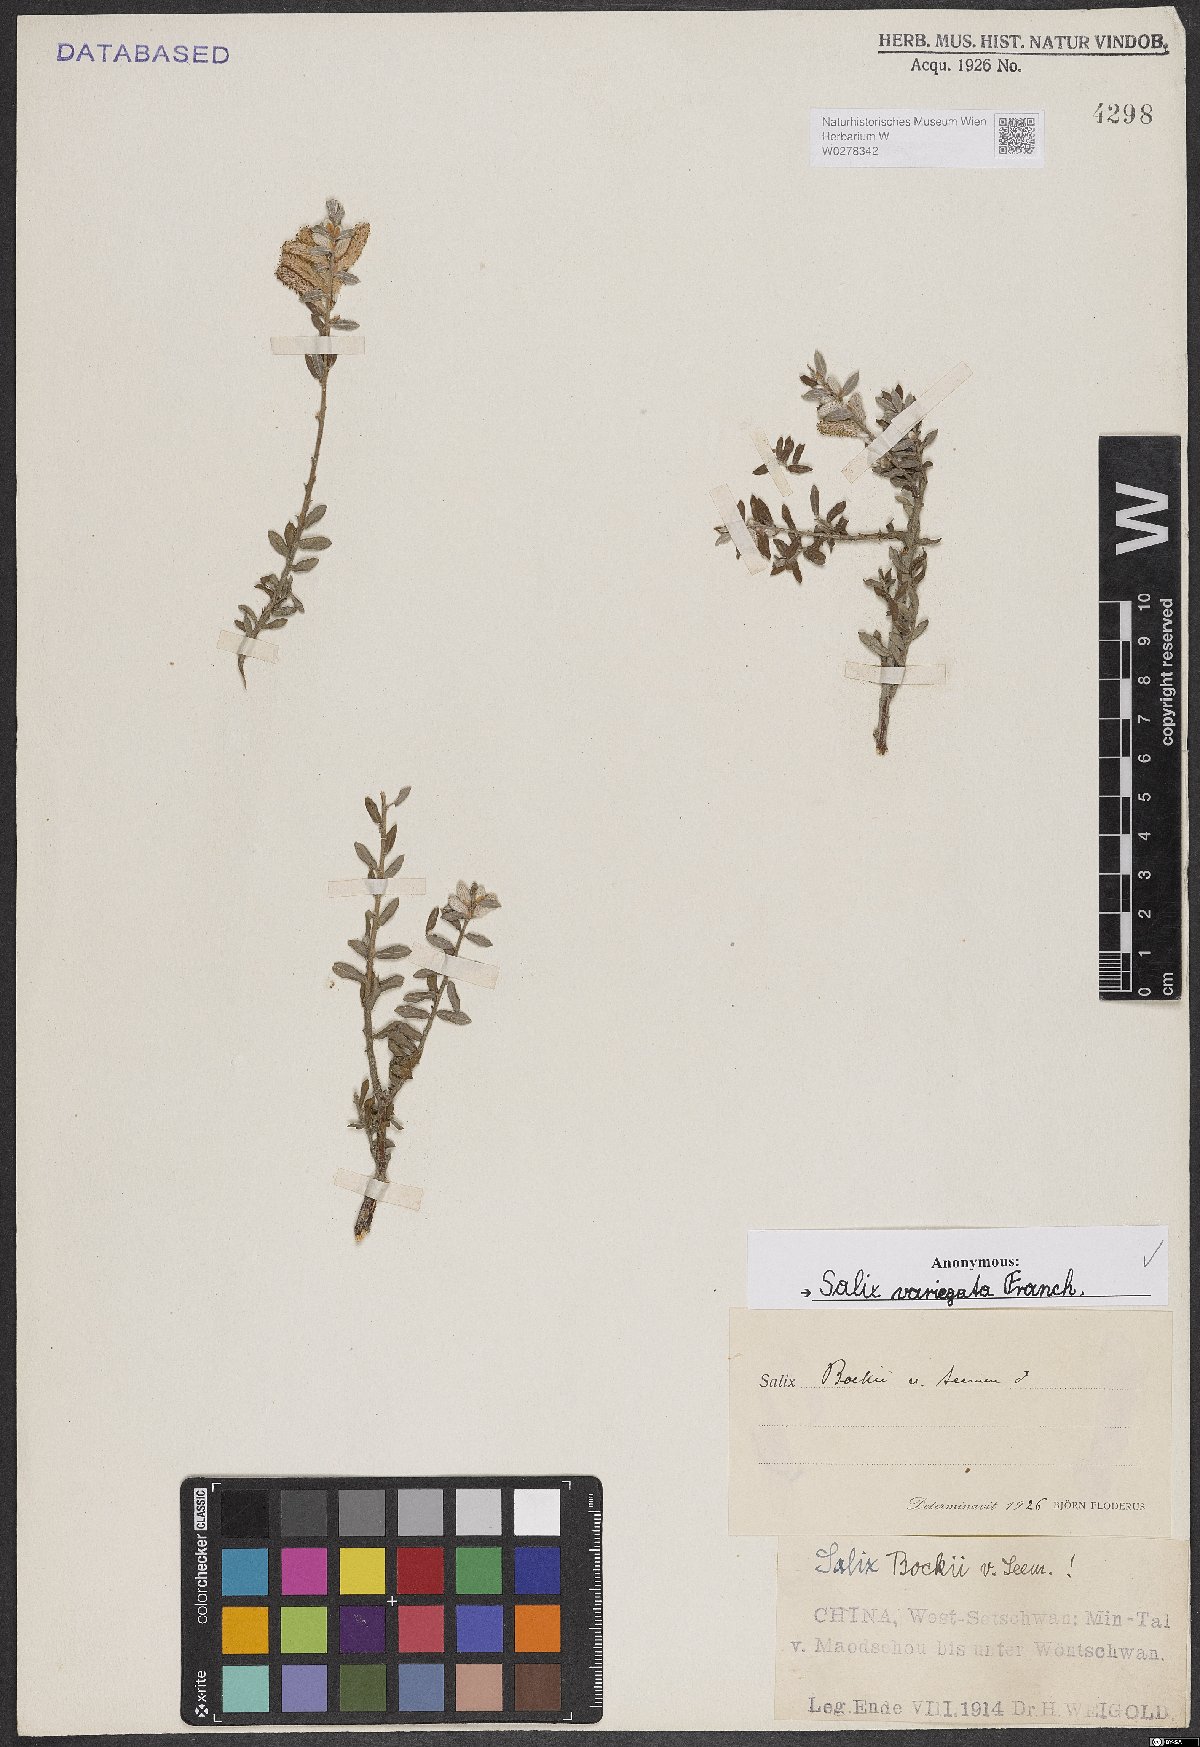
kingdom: Plantae
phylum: Tracheophyta
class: Magnoliopsida
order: Malpighiales
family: Salicaceae
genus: Salix
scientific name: Salix variegata
